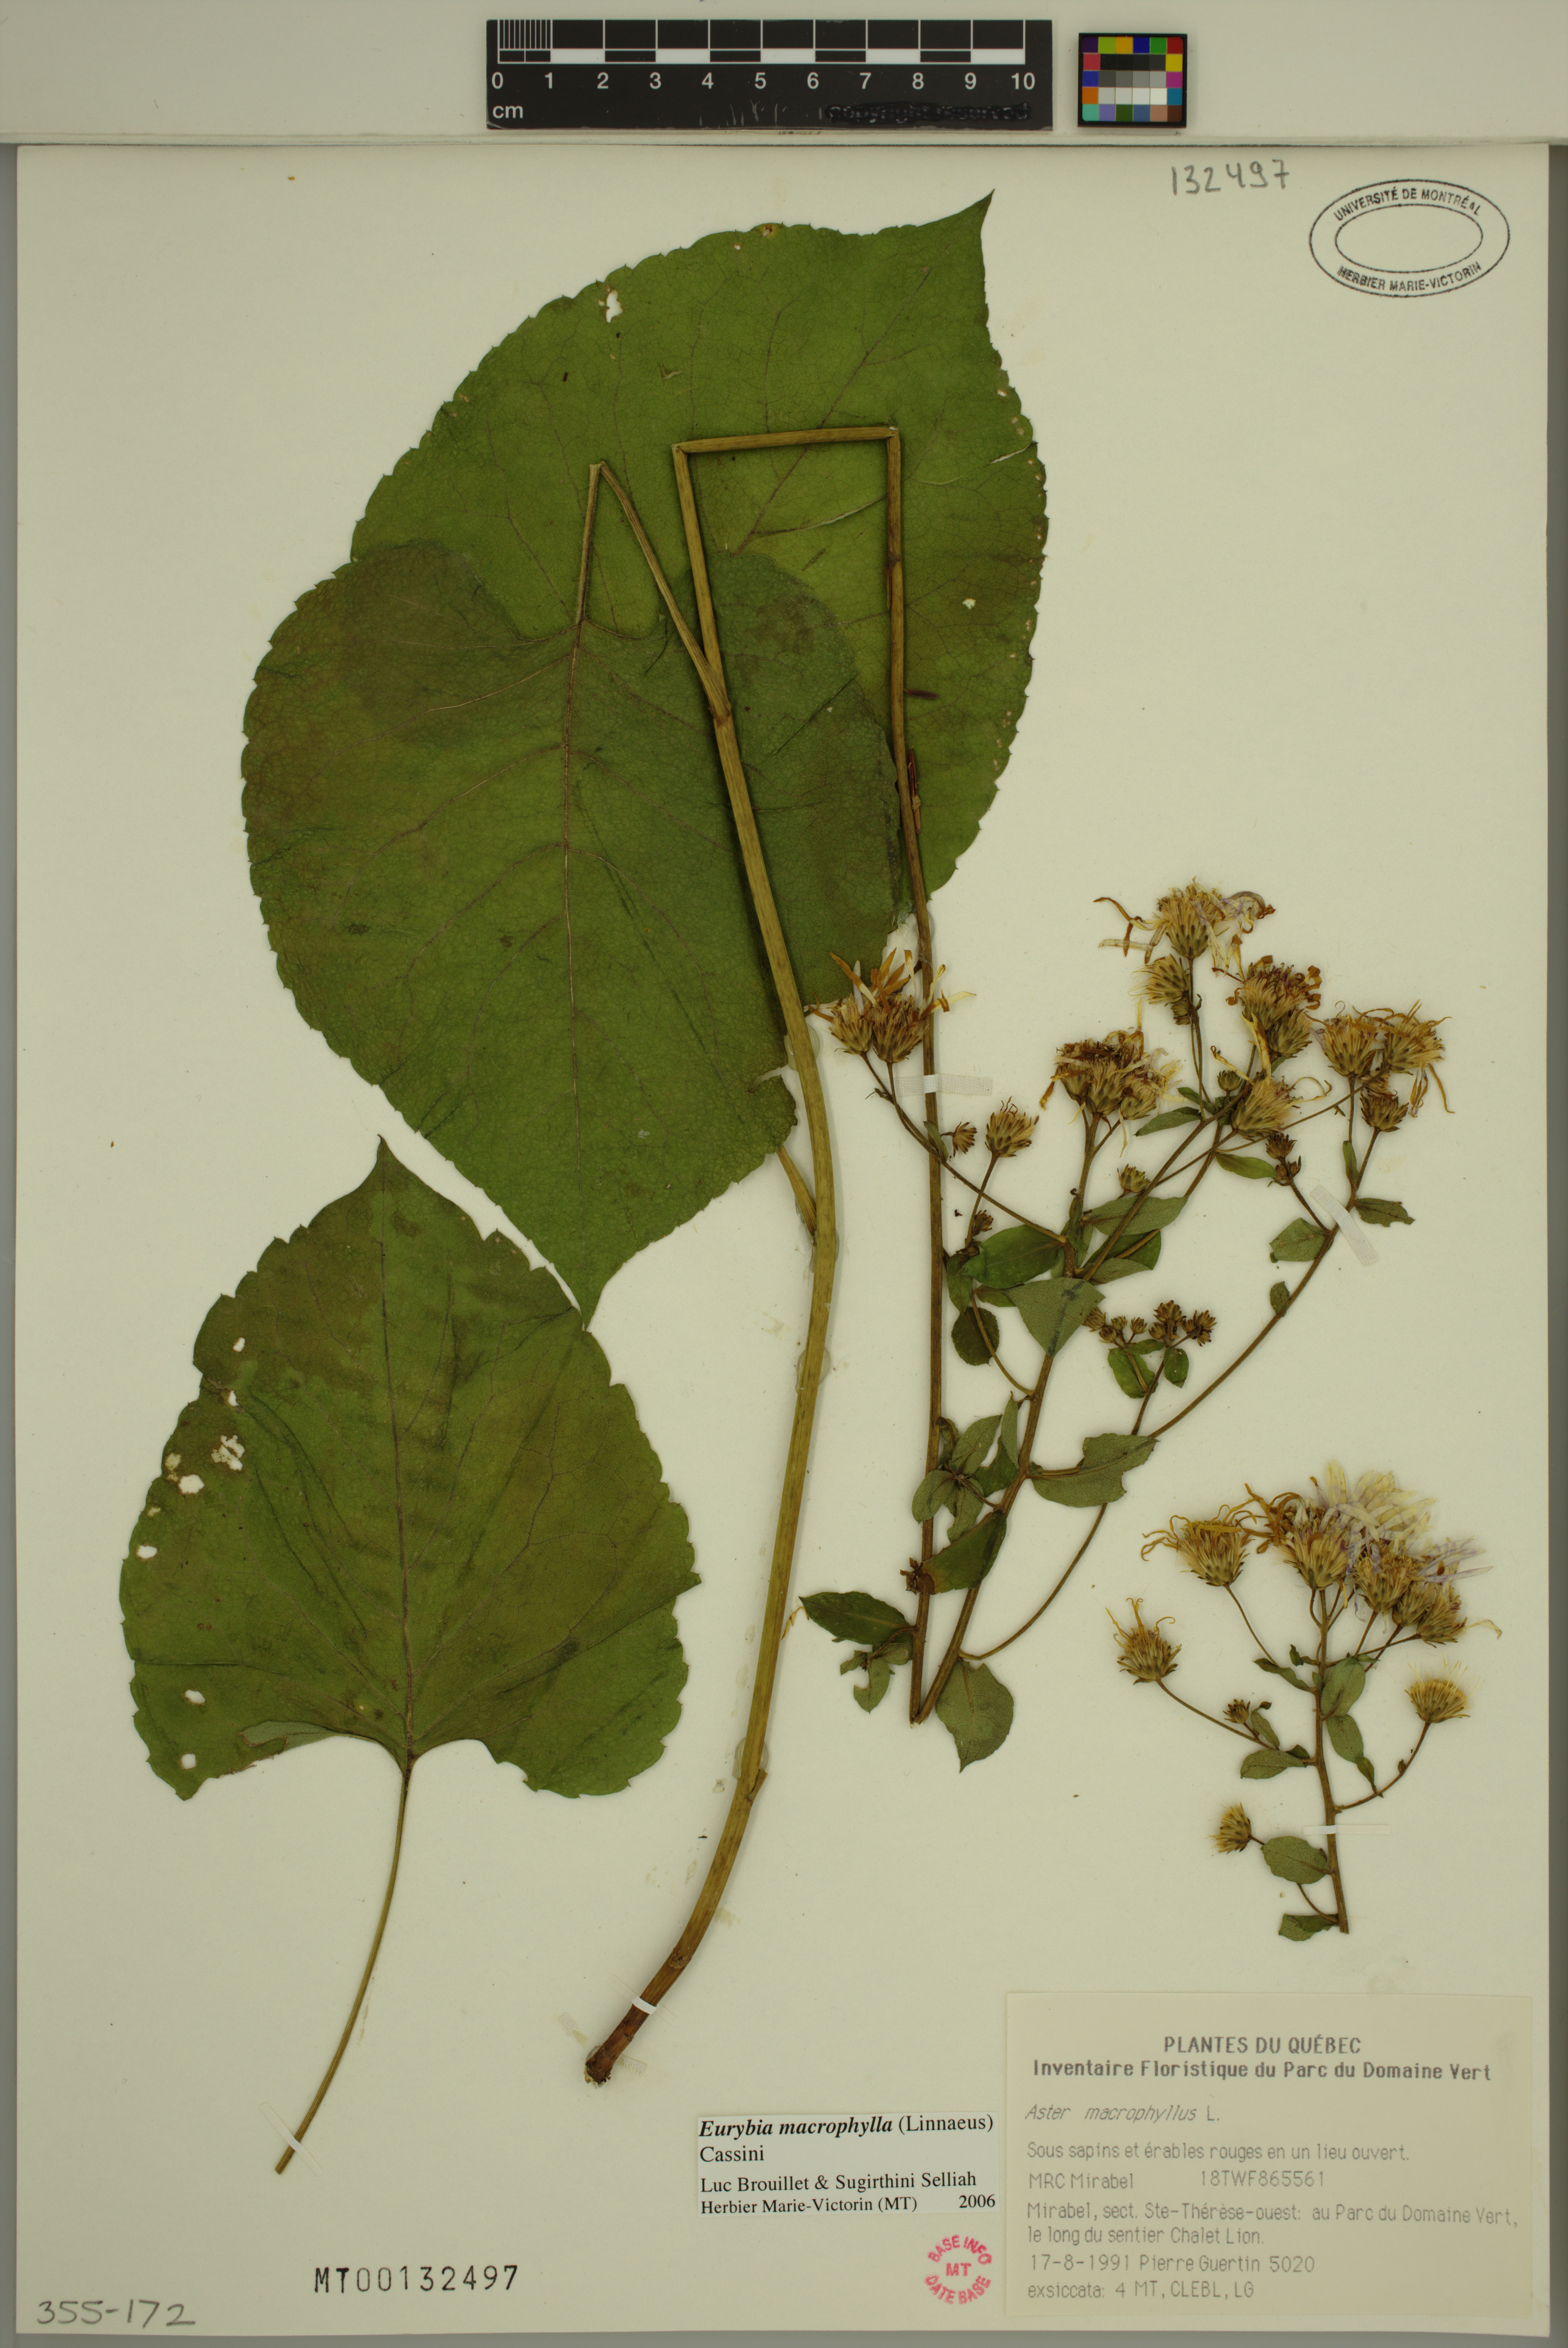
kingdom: Plantae
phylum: Tracheophyta
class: Magnoliopsida
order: Asterales
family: Asteraceae
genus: Eurybia
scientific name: Eurybia macrophylla
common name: Big-leaved aster
